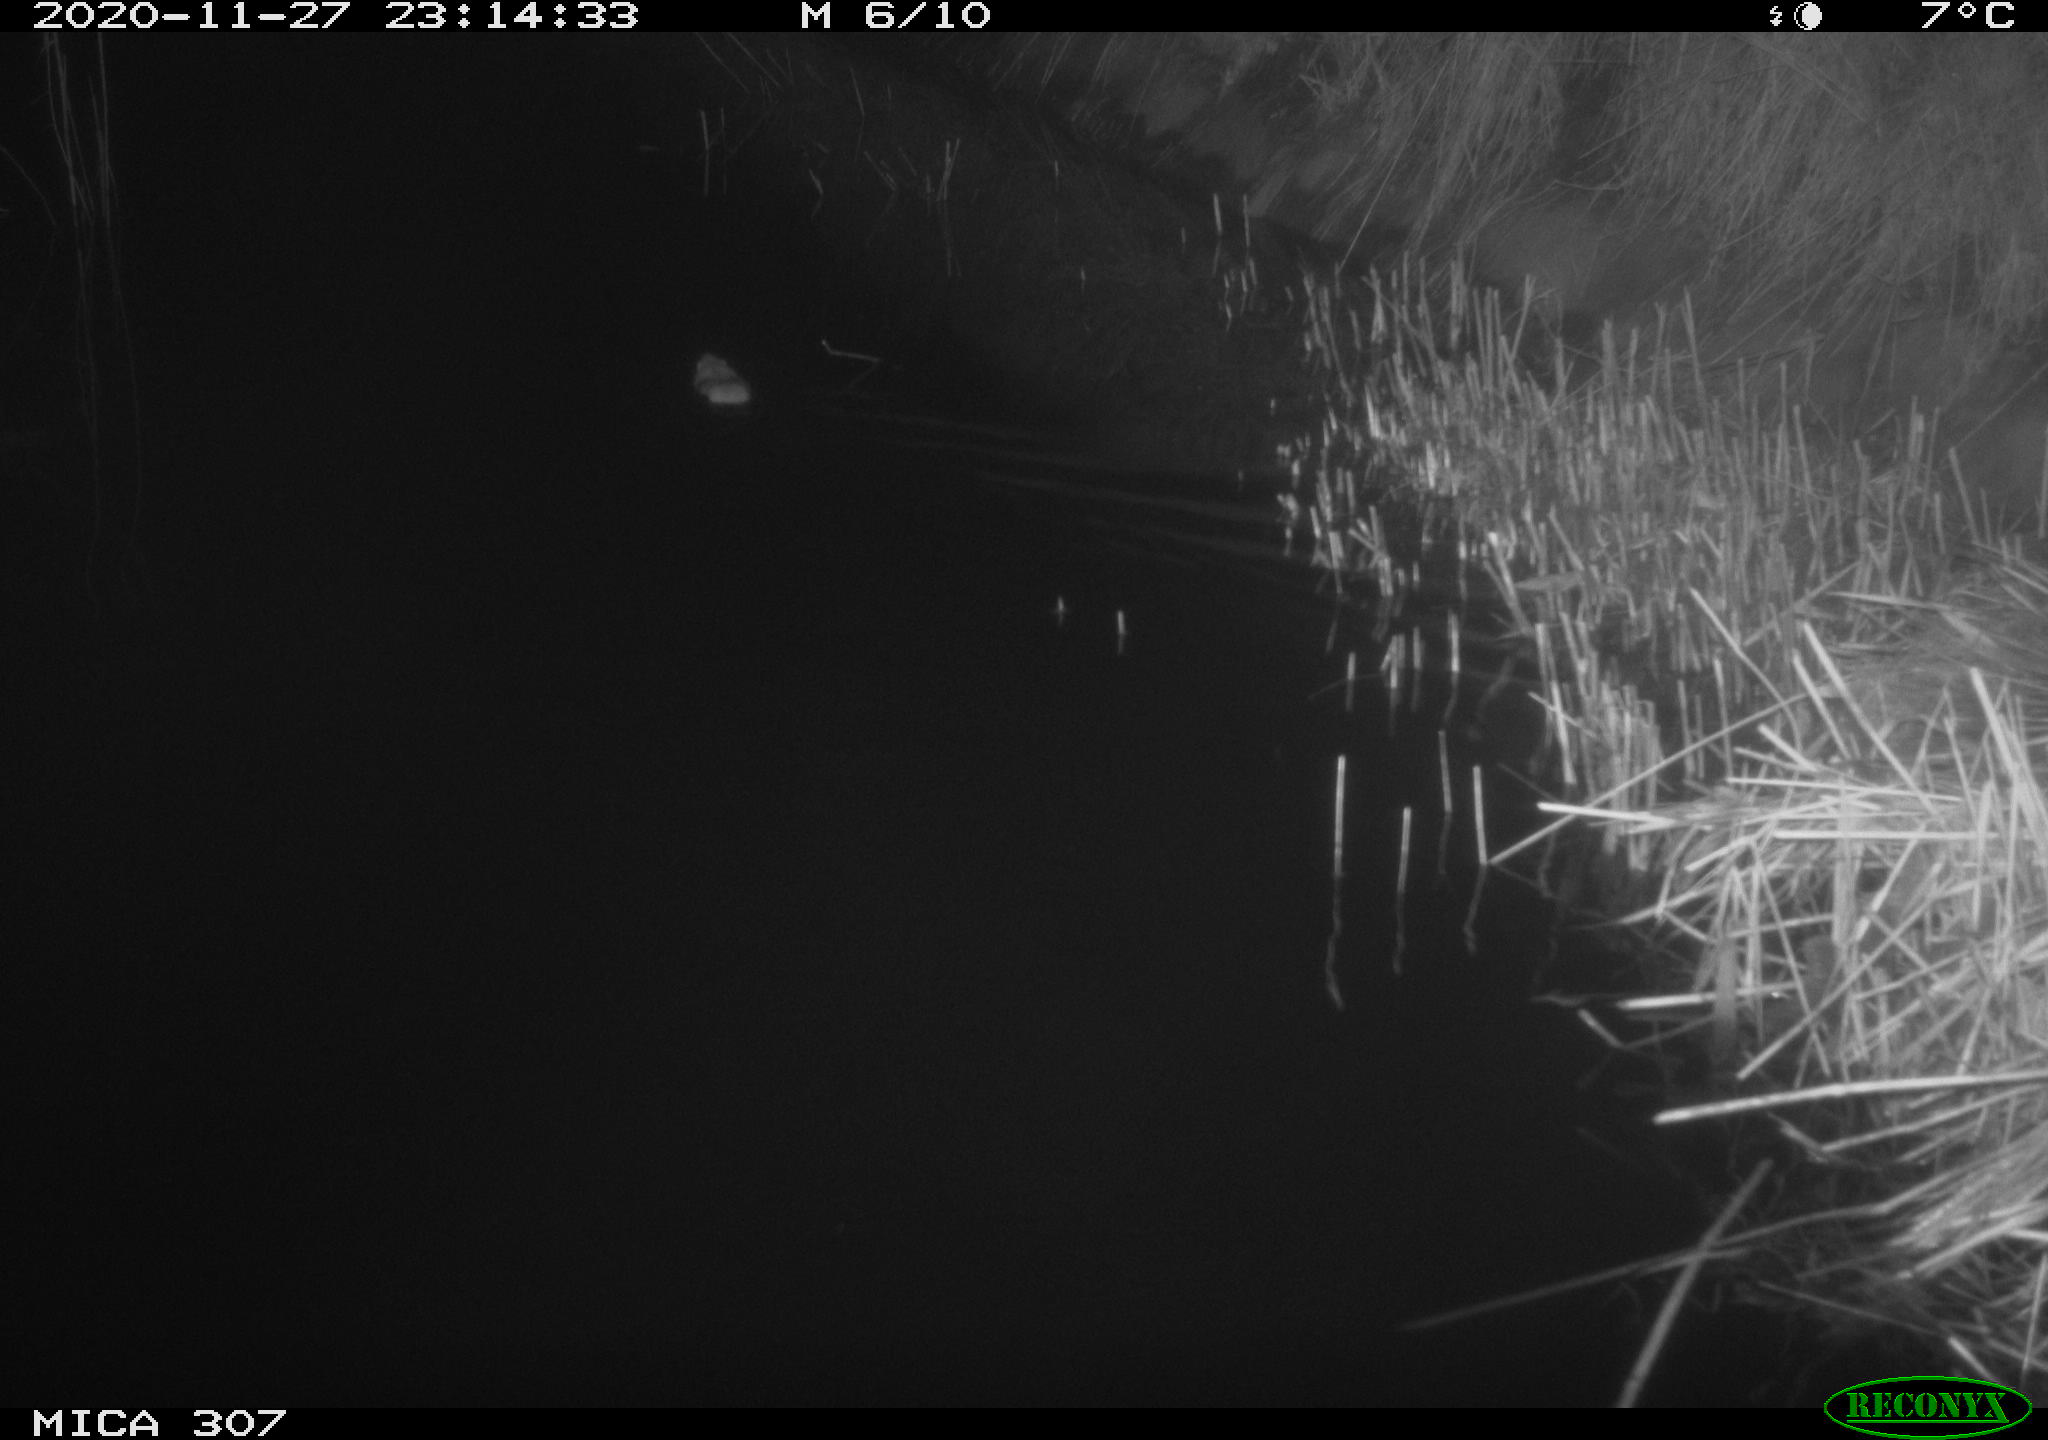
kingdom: Animalia
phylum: Chordata
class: Mammalia
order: Rodentia
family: Muridae
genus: Rattus
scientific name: Rattus norvegicus
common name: Brown rat
